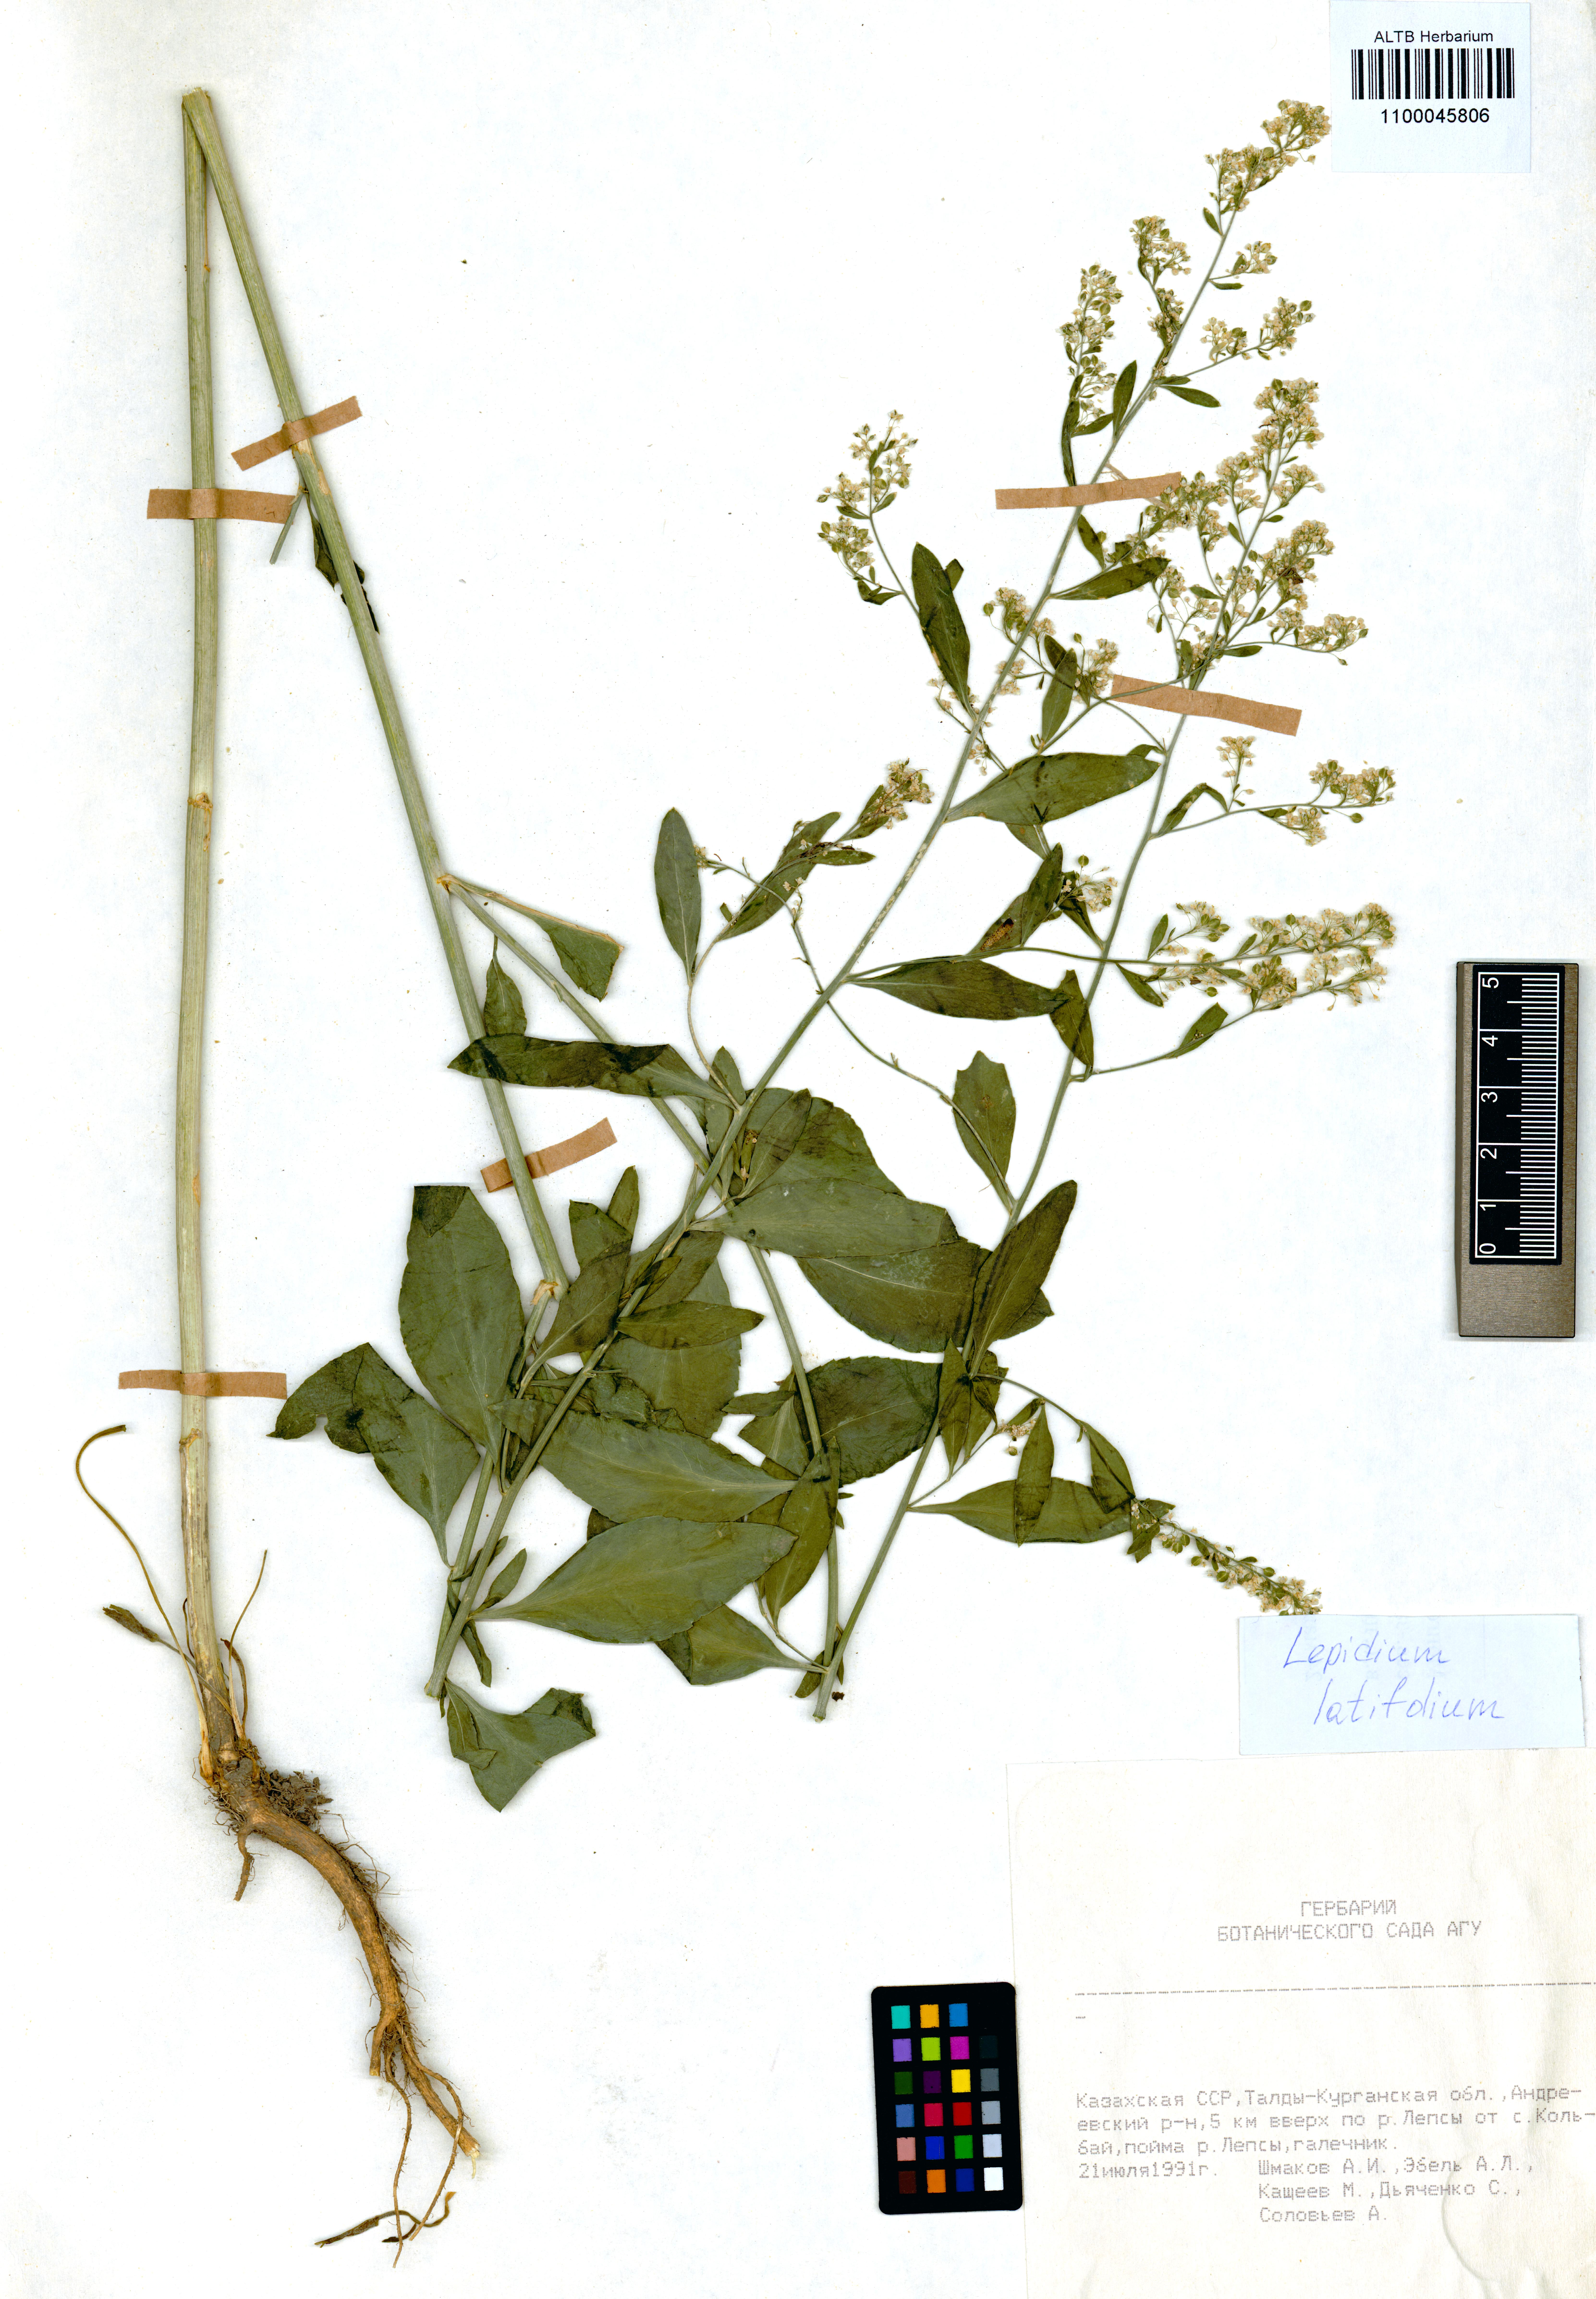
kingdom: Plantae
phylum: Tracheophyta
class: Magnoliopsida
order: Brassicales
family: Brassicaceae
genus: Lepidium
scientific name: Lepidium latifolium
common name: Dittander
